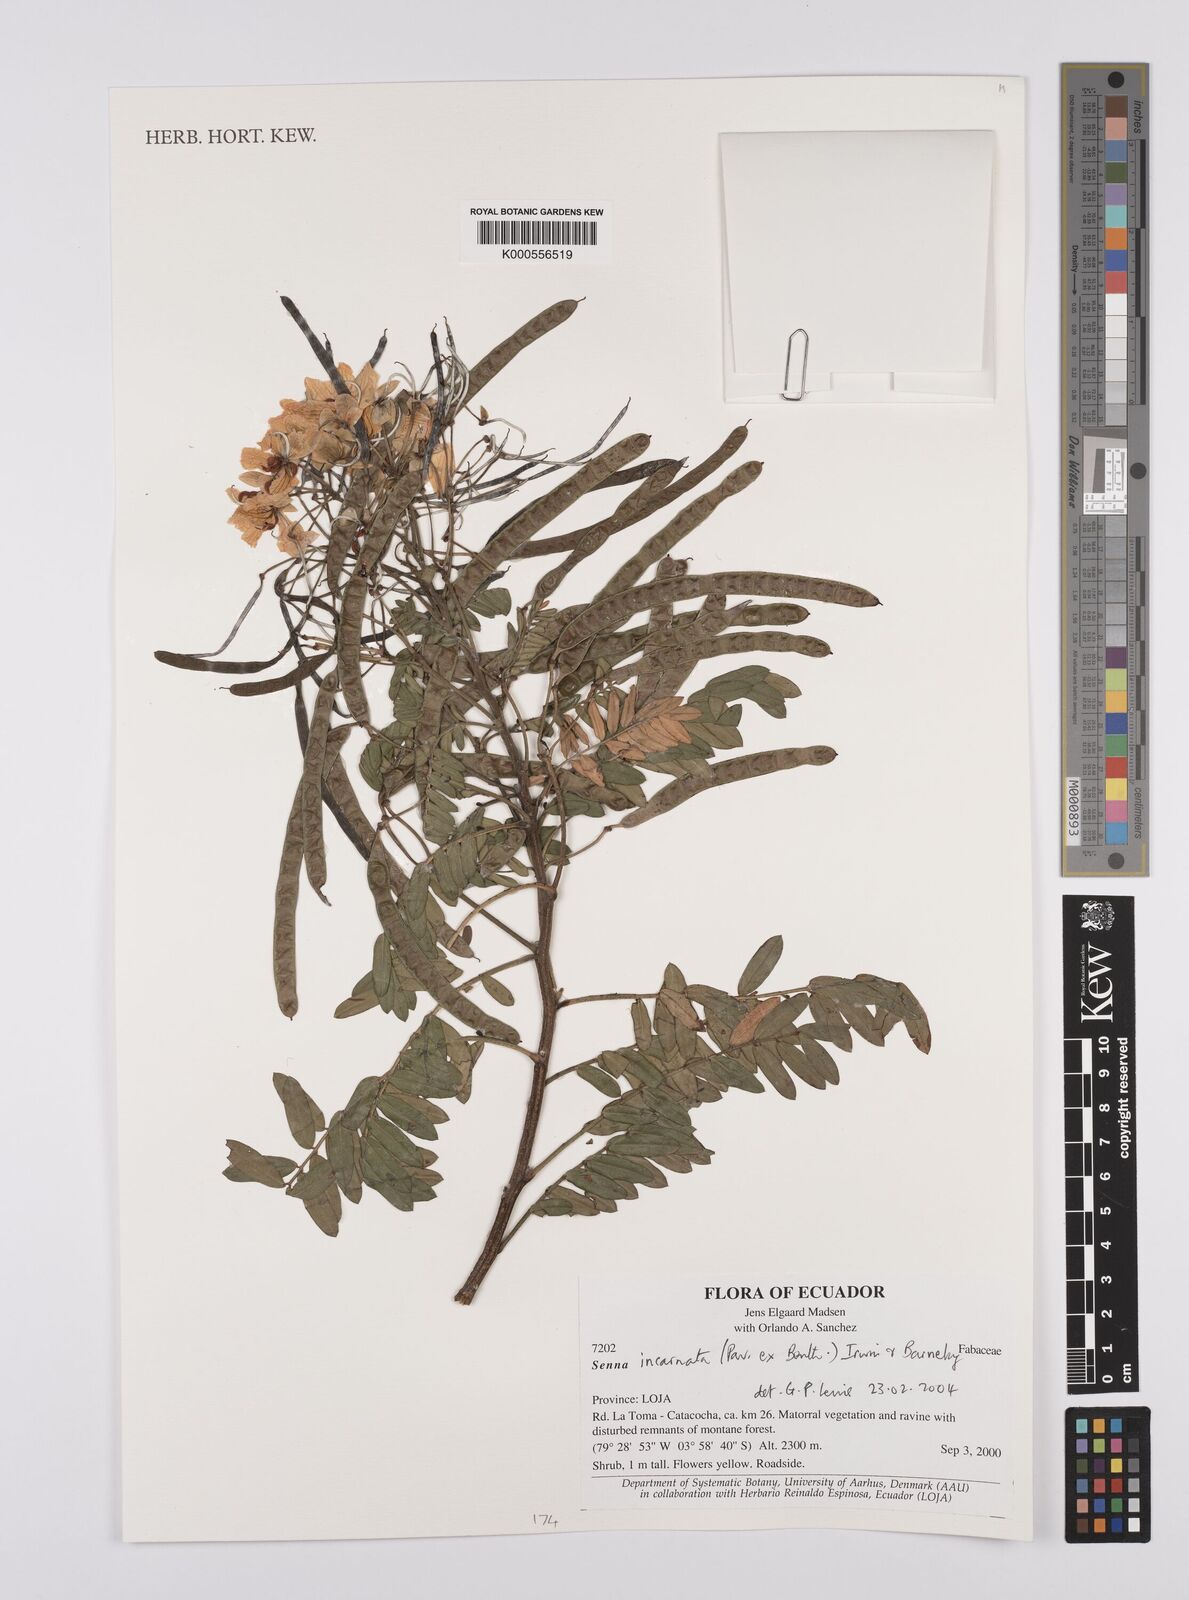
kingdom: Plantae
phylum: Tracheophyta
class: Magnoliopsida
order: Fabales
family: Fabaceae
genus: Senna
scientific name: Senna incarnata
